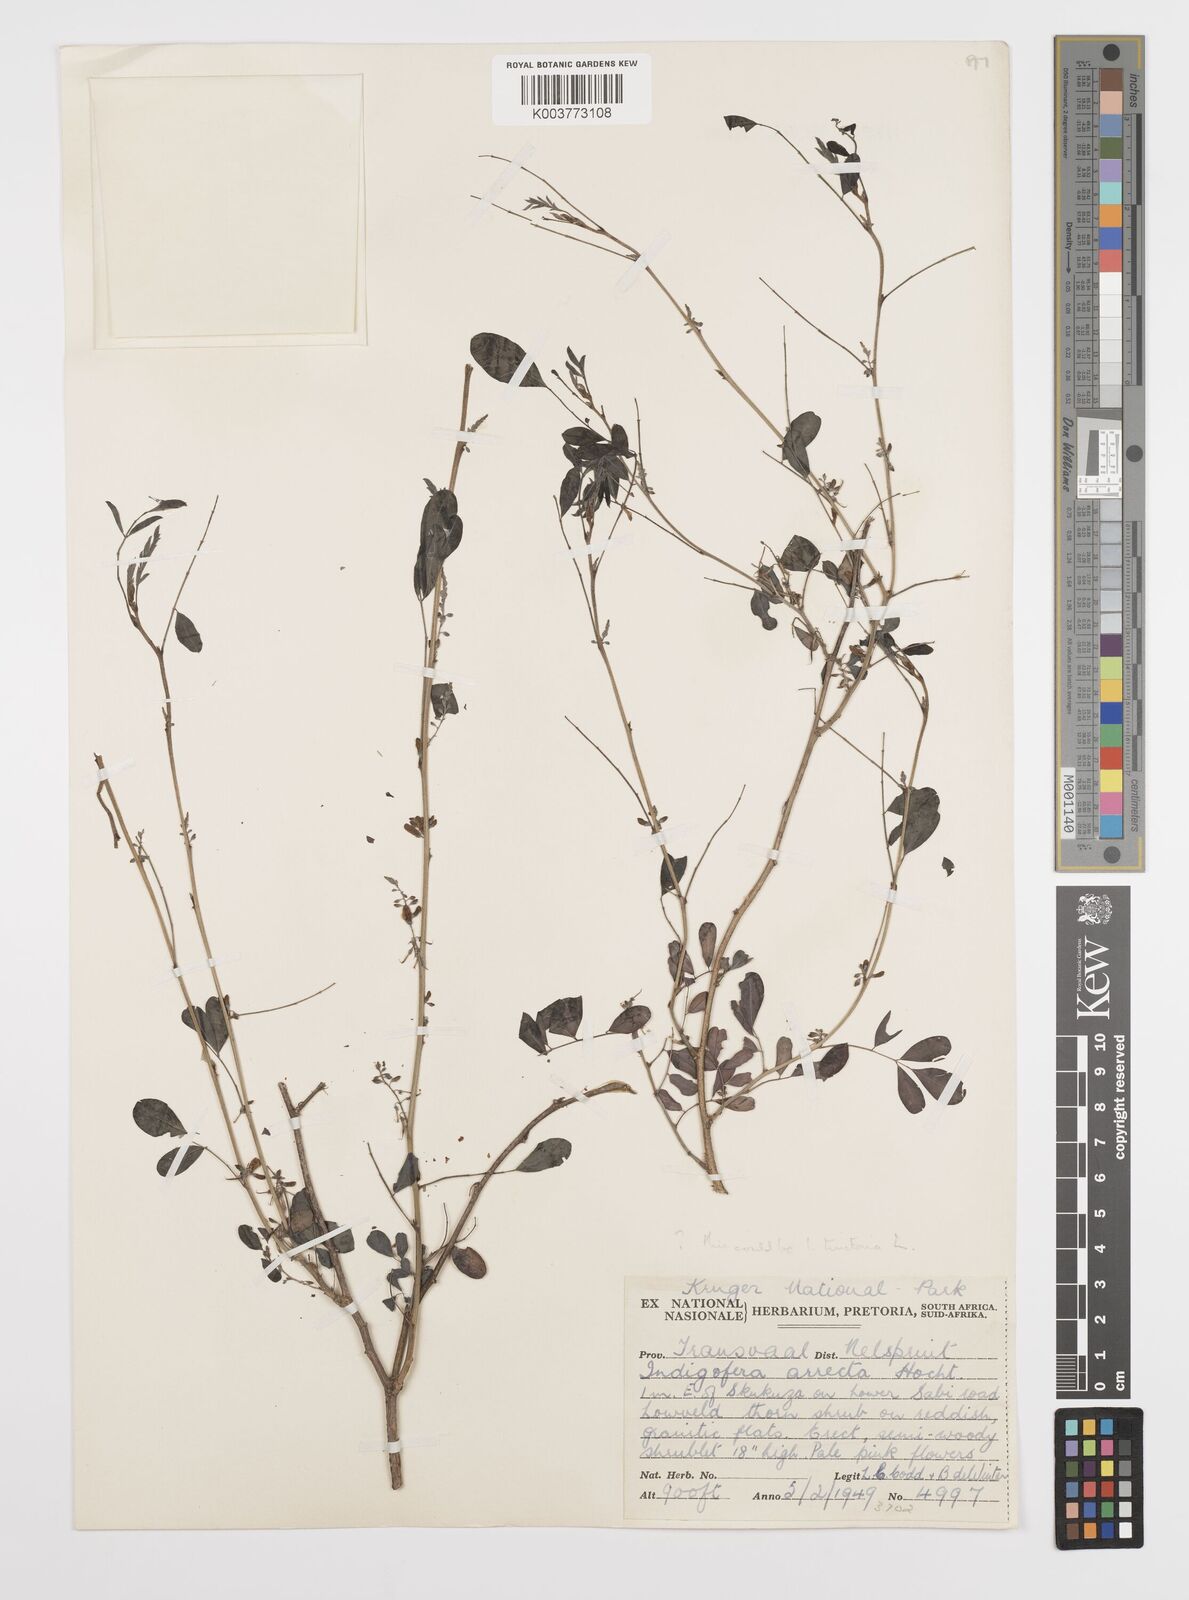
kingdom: Plantae
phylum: Tracheophyta
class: Magnoliopsida
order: Fabales
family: Fabaceae
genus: Indigofera
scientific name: Indigofera tinctoria
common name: True indigo
